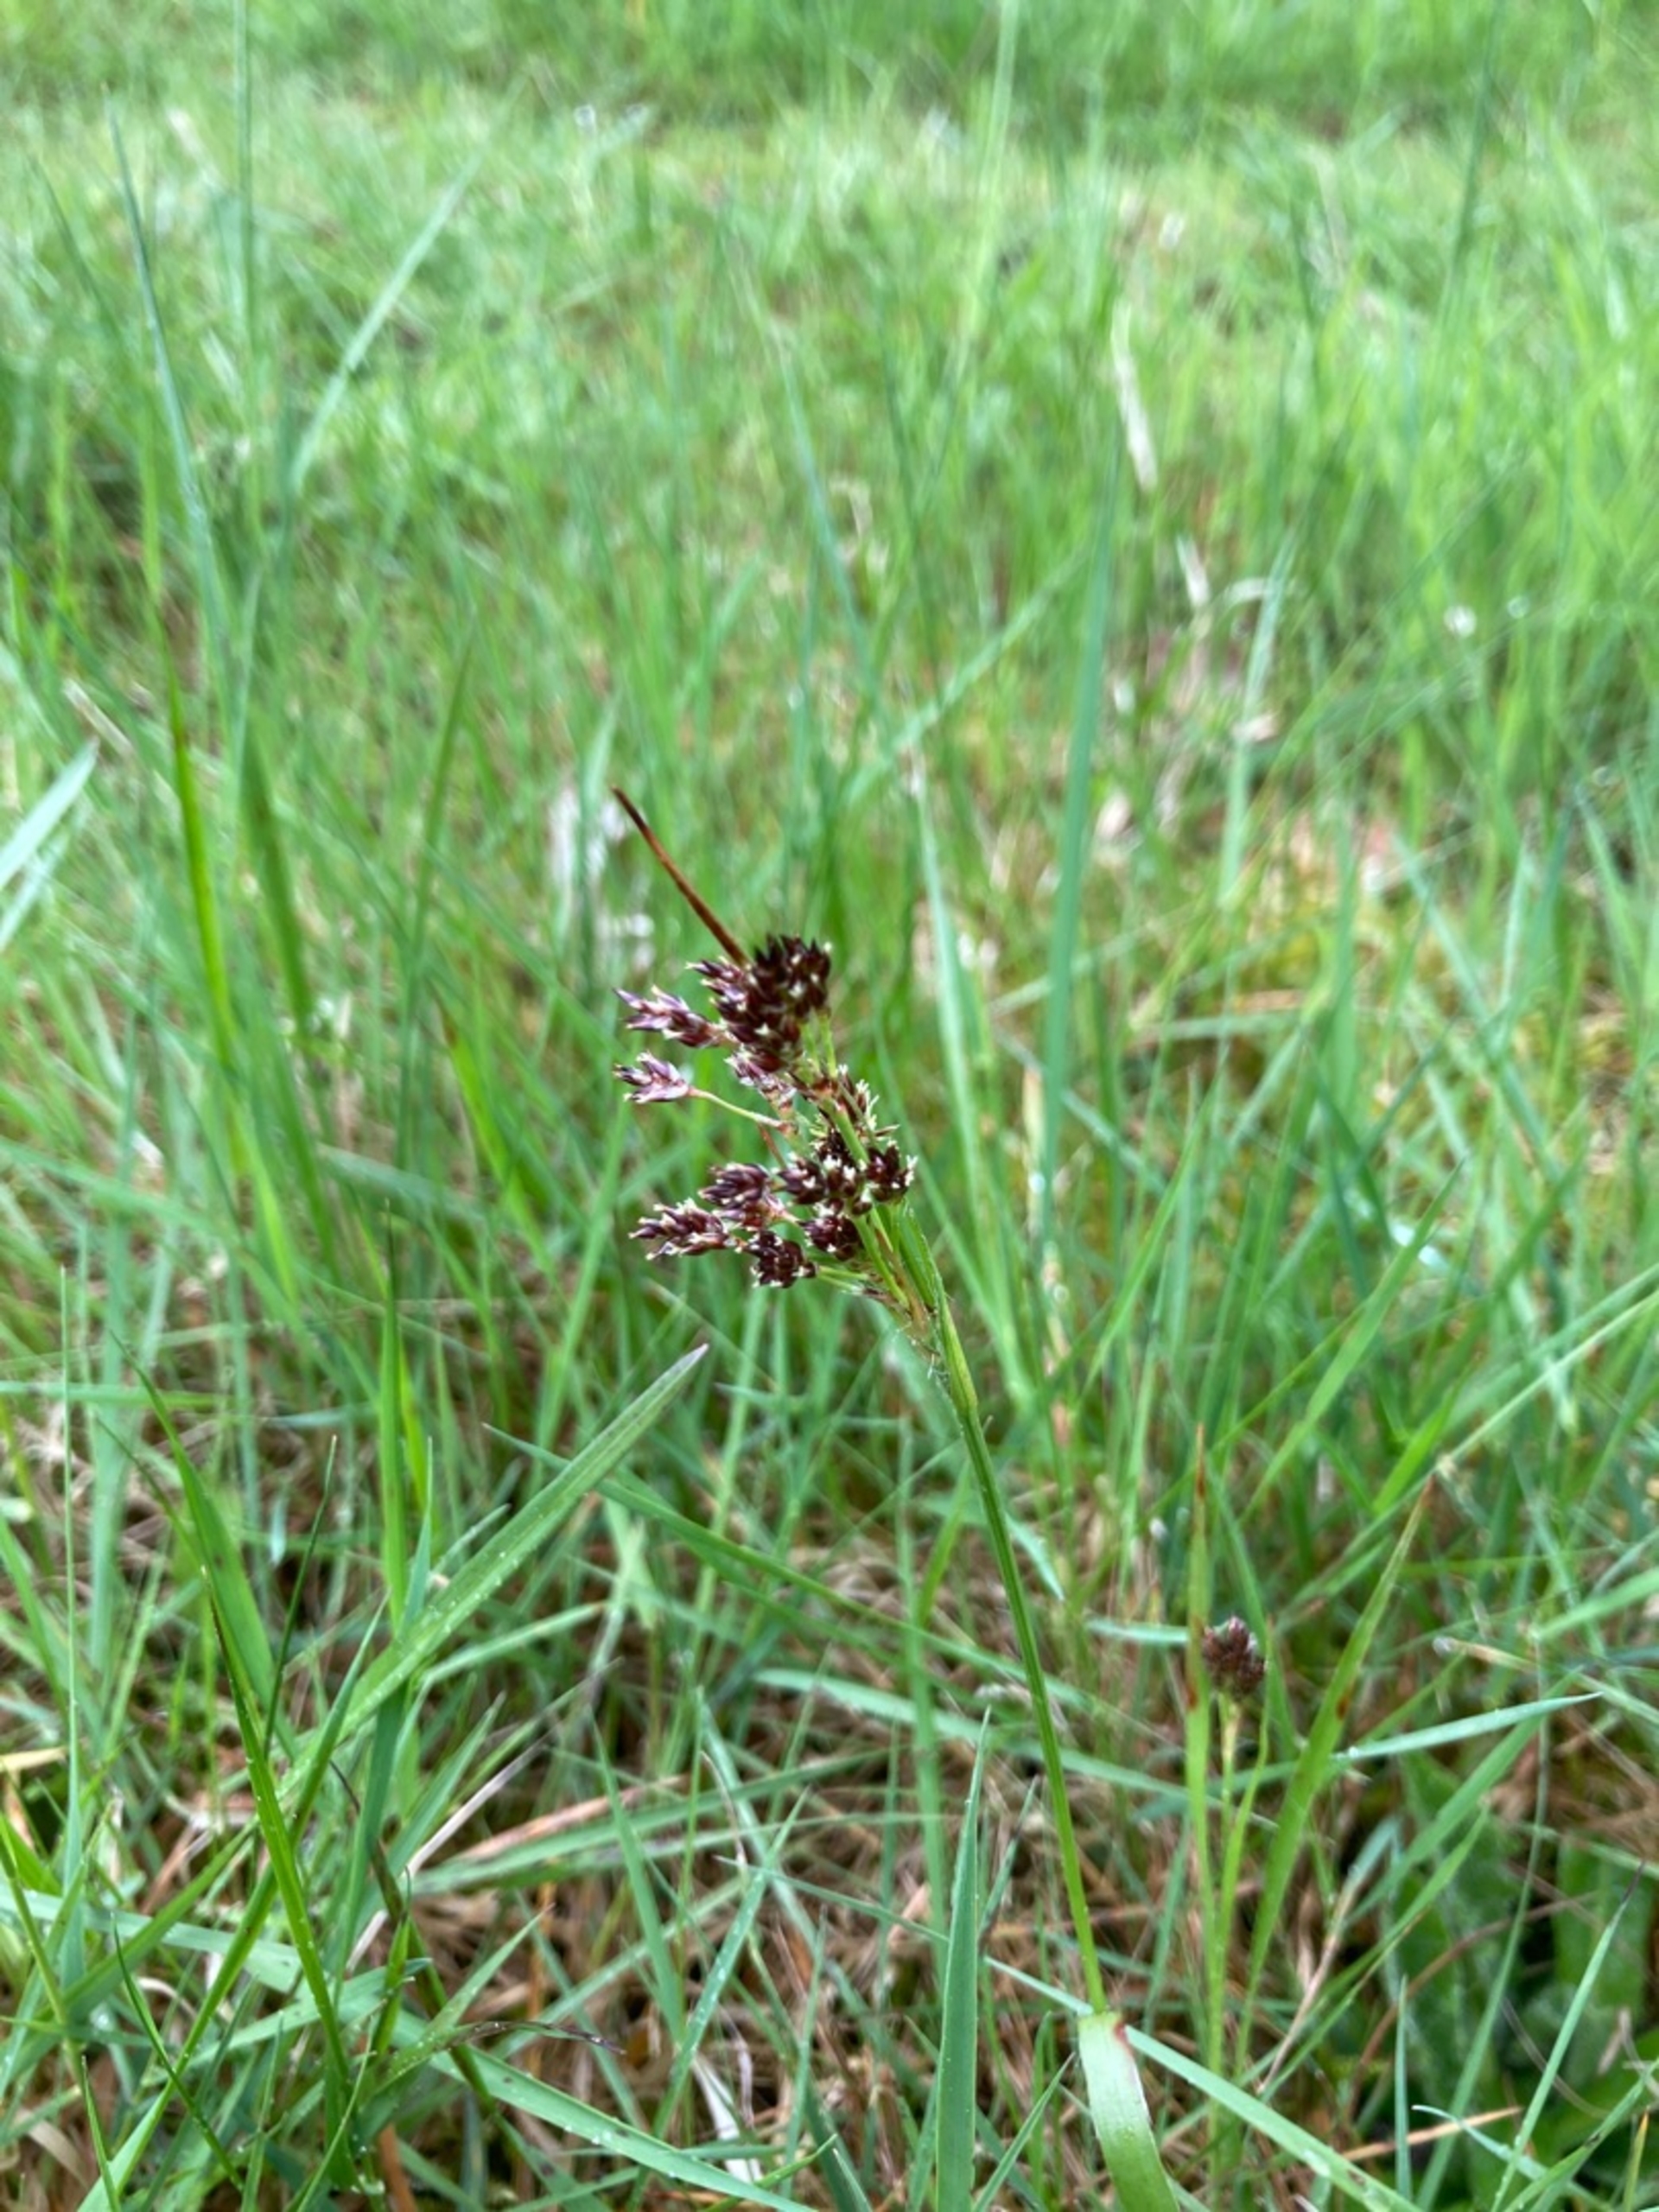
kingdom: Plantae
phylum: Tracheophyta
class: Liliopsida
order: Poales
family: Juncaceae
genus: Luzula
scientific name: Luzula campestris
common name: Mark-frytle
